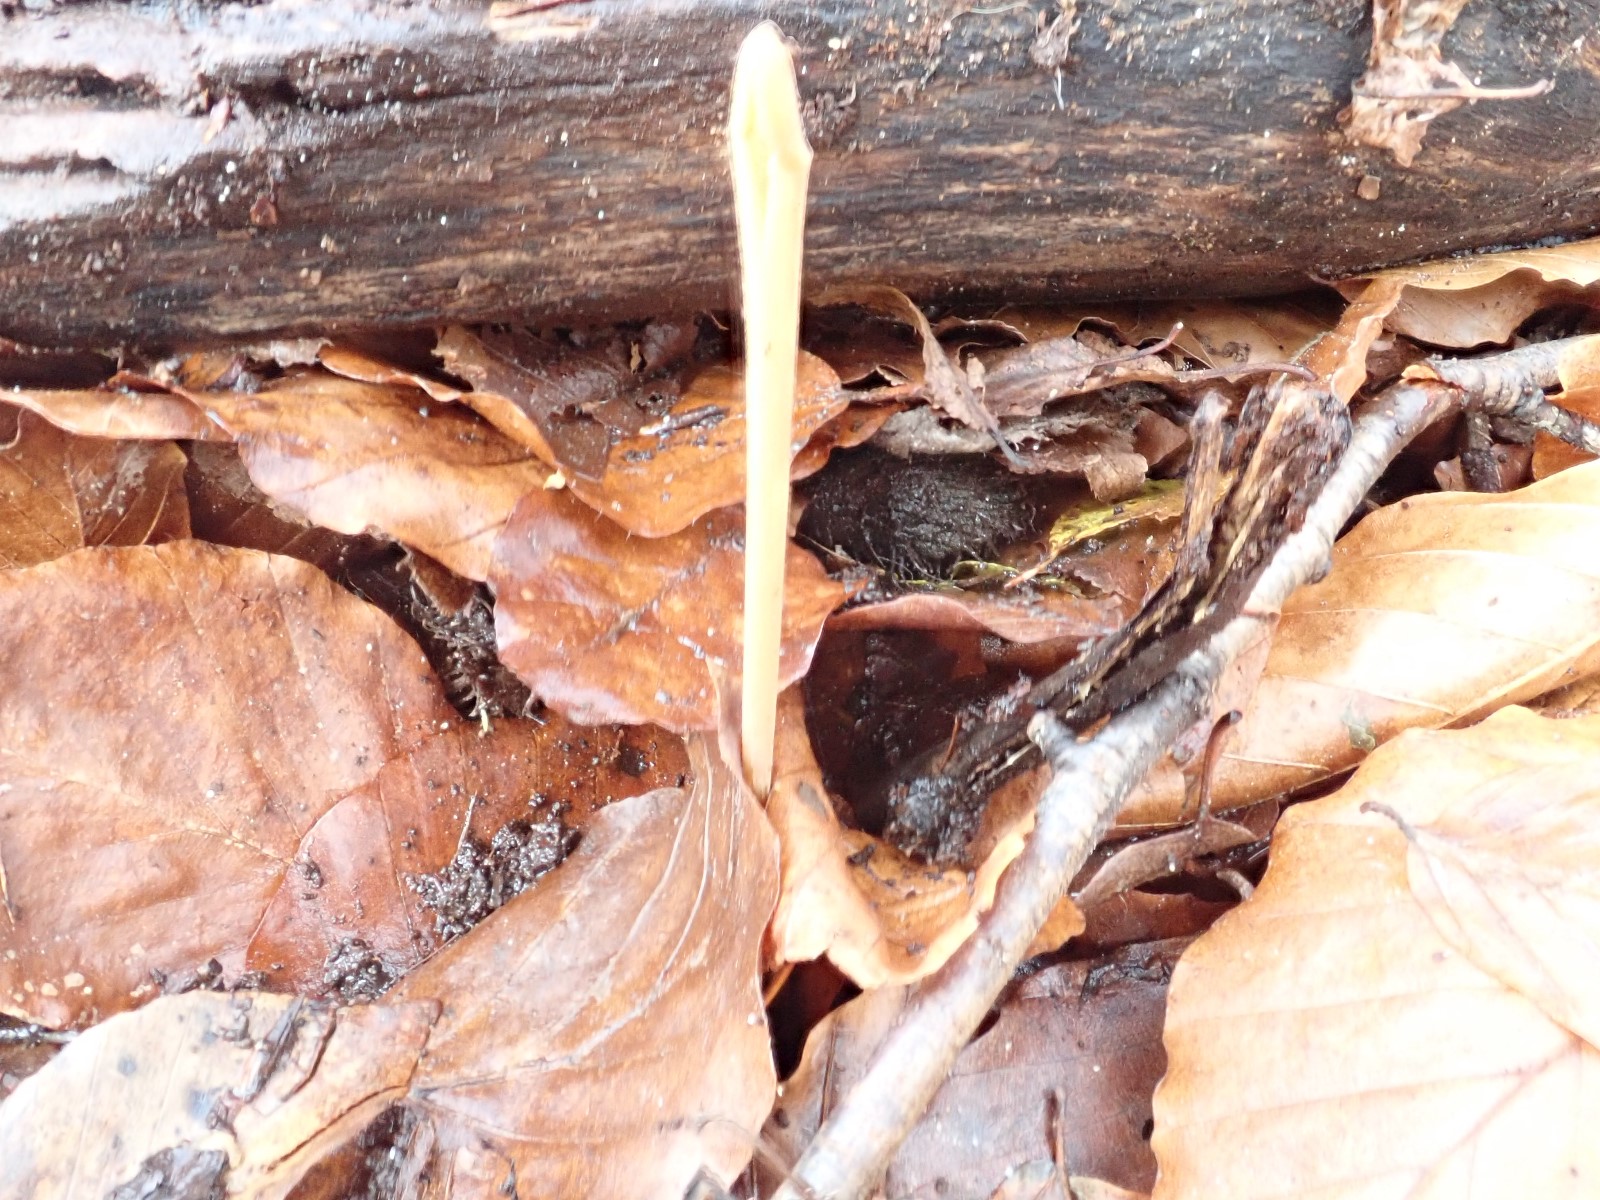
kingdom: Fungi
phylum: Basidiomycota
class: Agaricomycetes
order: Agaricales
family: Typhulaceae
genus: Typhula
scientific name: Typhula fistulosa
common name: pibet rørkølle
